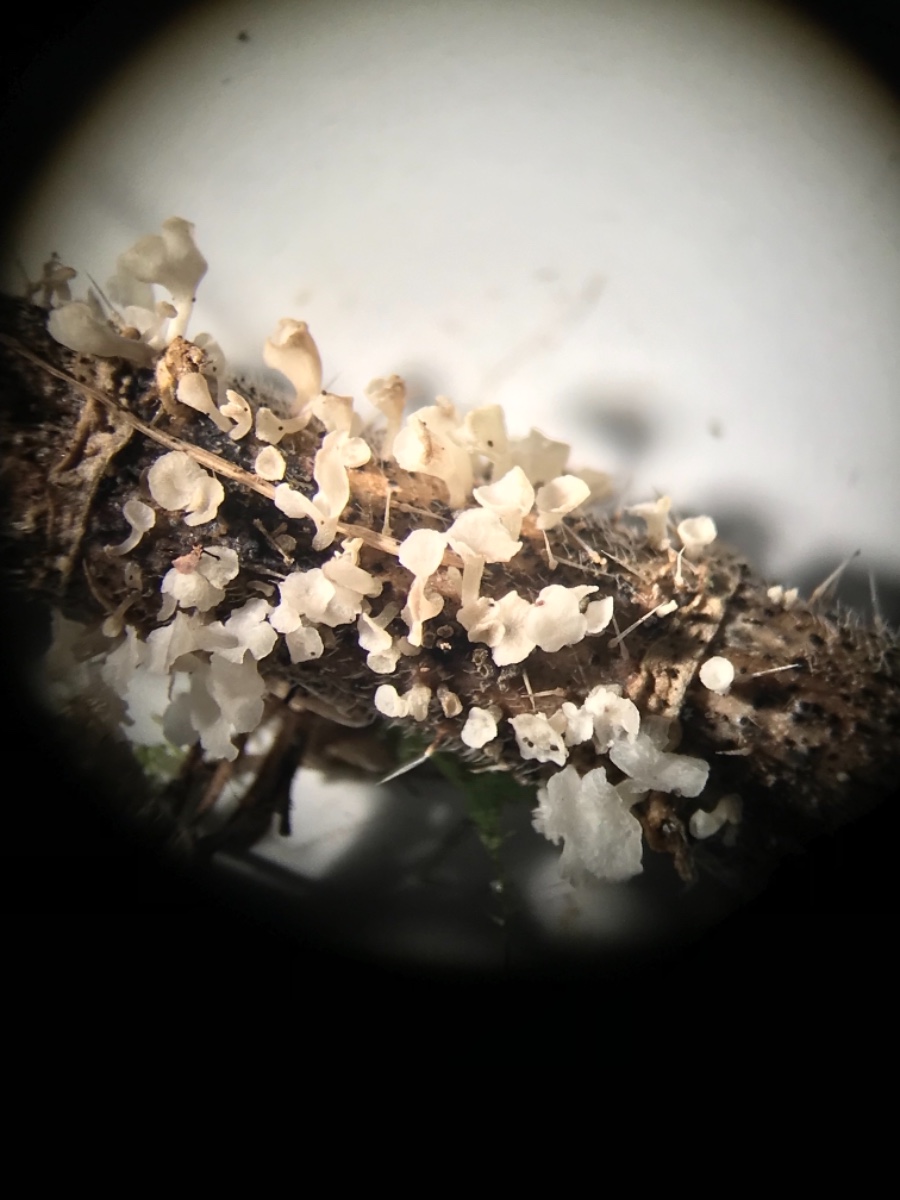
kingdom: Fungi
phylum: Basidiomycota
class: Agaricomycetes
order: Agaricales
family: Marasmiaceae
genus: Calyptella
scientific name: Calyptella capula
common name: hvidlig nældehue
